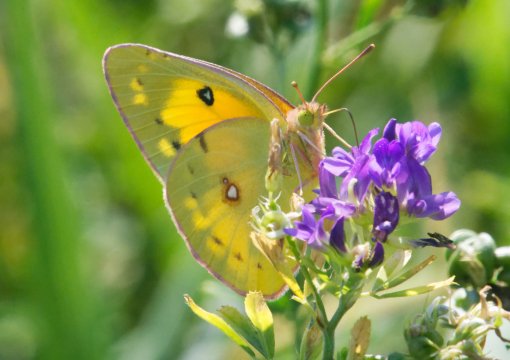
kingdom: Animalia
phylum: Arthropoda
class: Insecta
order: Lepidoptera
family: Pieridae
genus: Colias
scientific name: Colias eurytheme
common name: Orange Sulphur
